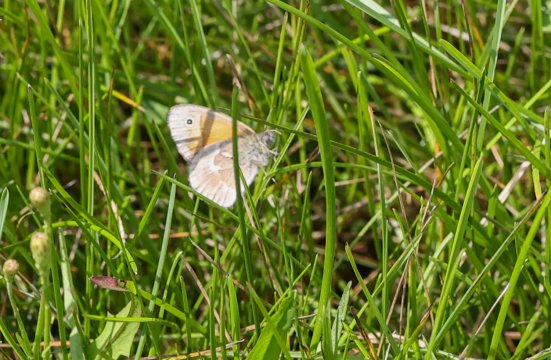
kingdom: Animalia
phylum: Arthropoda
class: Insecta
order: Lepidoptera
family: Nymphalidae
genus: Coenonympha
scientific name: Coenonympha tullia
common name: Large Heath
